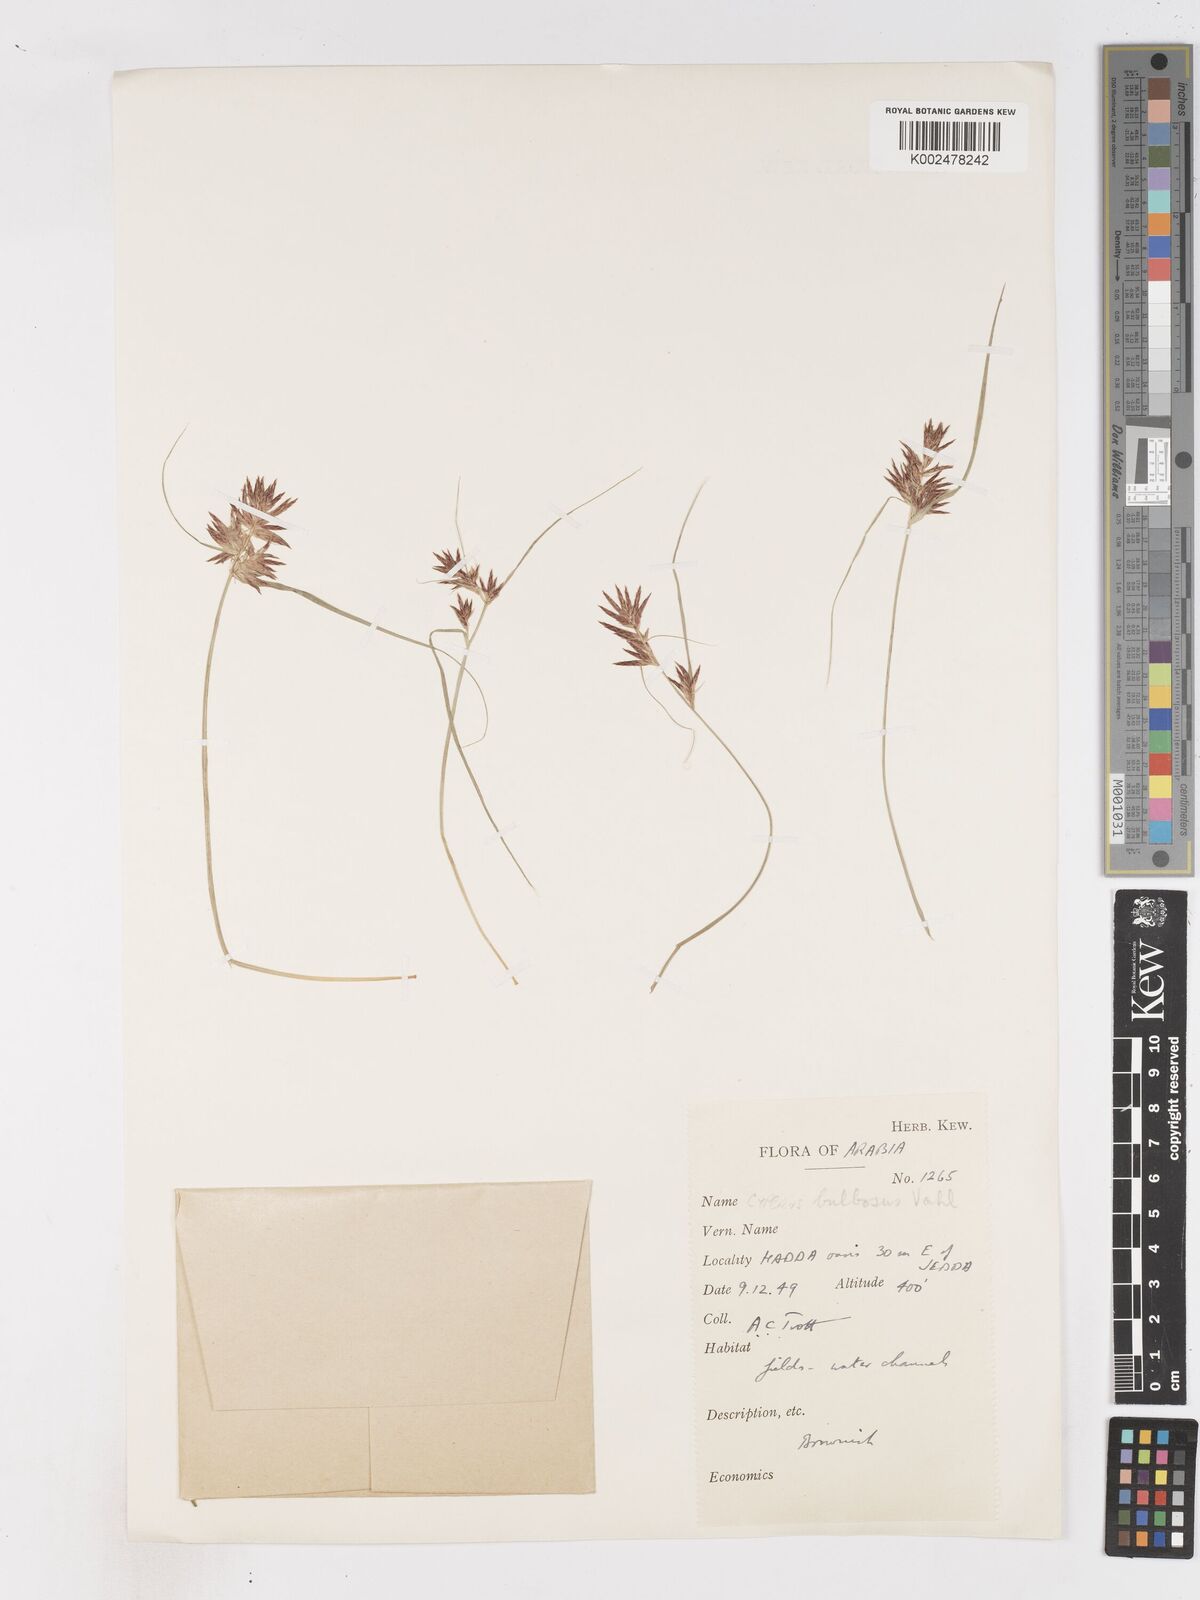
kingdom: Plantae
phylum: Tracheophyta
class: Liliopsida
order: Poales
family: Cyperaceae
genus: Cyperus
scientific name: Cyperus bulbosus
